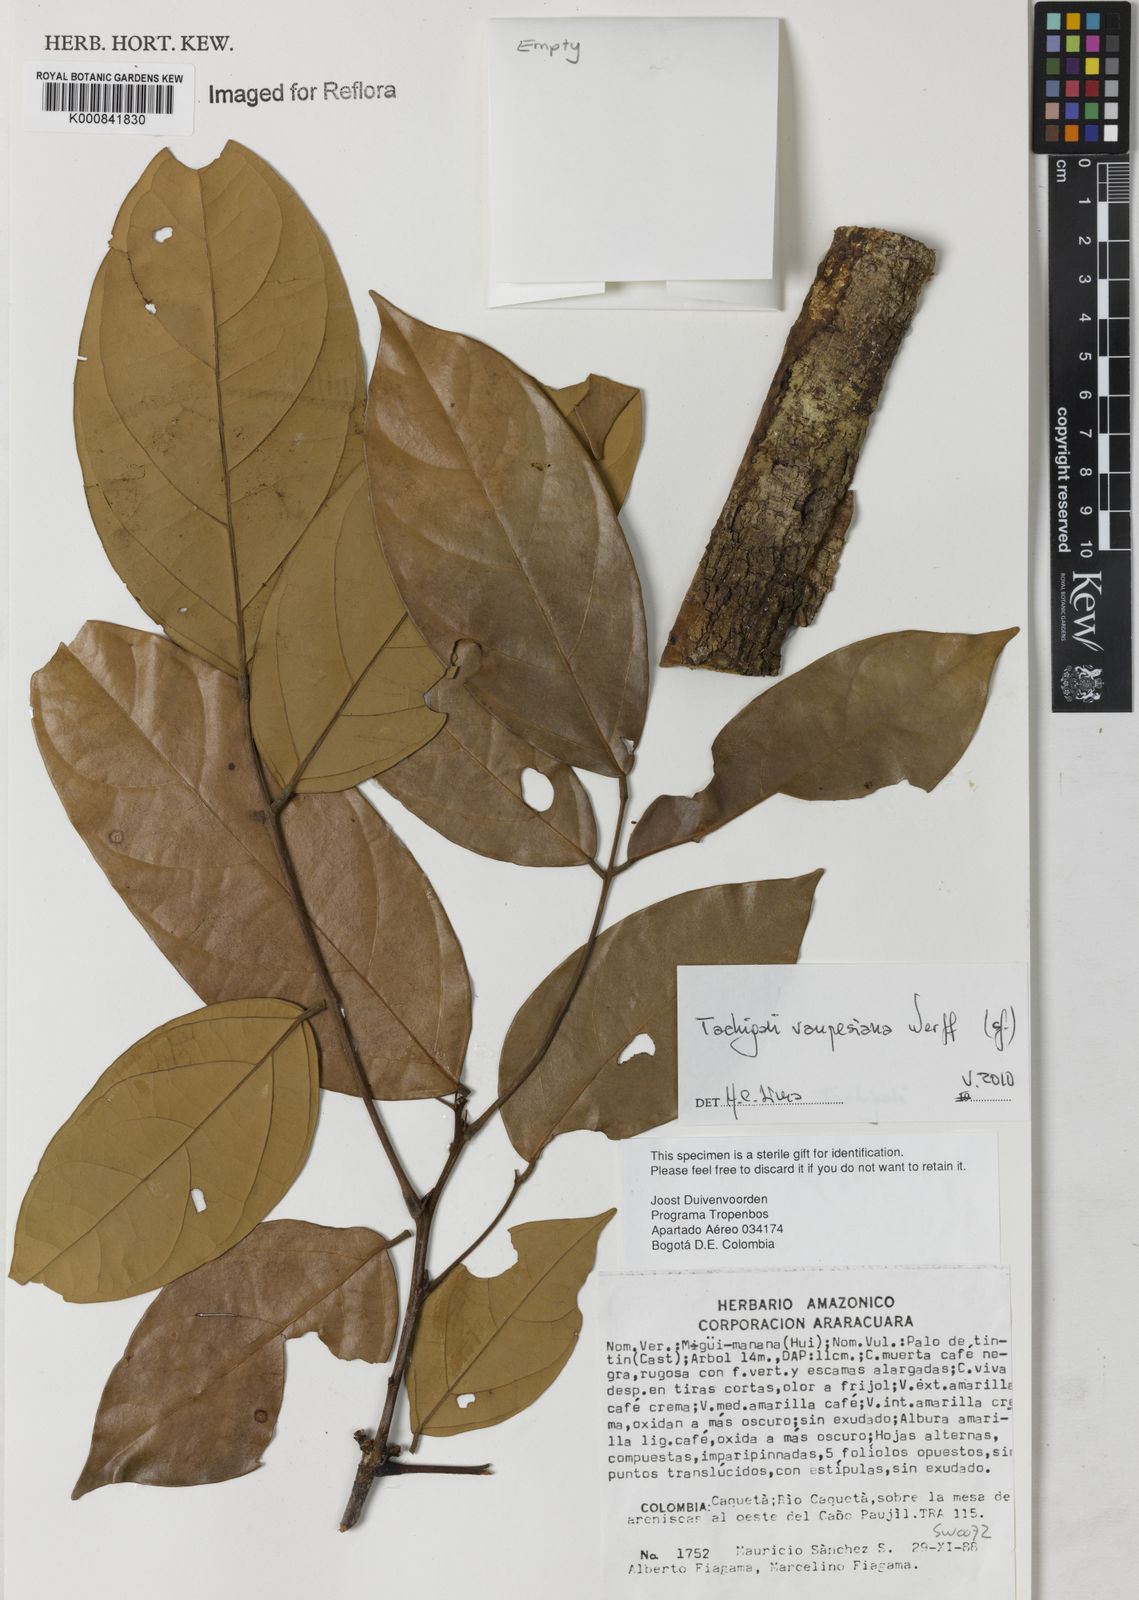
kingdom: Plantae
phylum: Tracheophyta
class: Magnoliopsida
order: Fabales
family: Fabaceae
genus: Tachigali
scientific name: Tachigali vaupesiana
